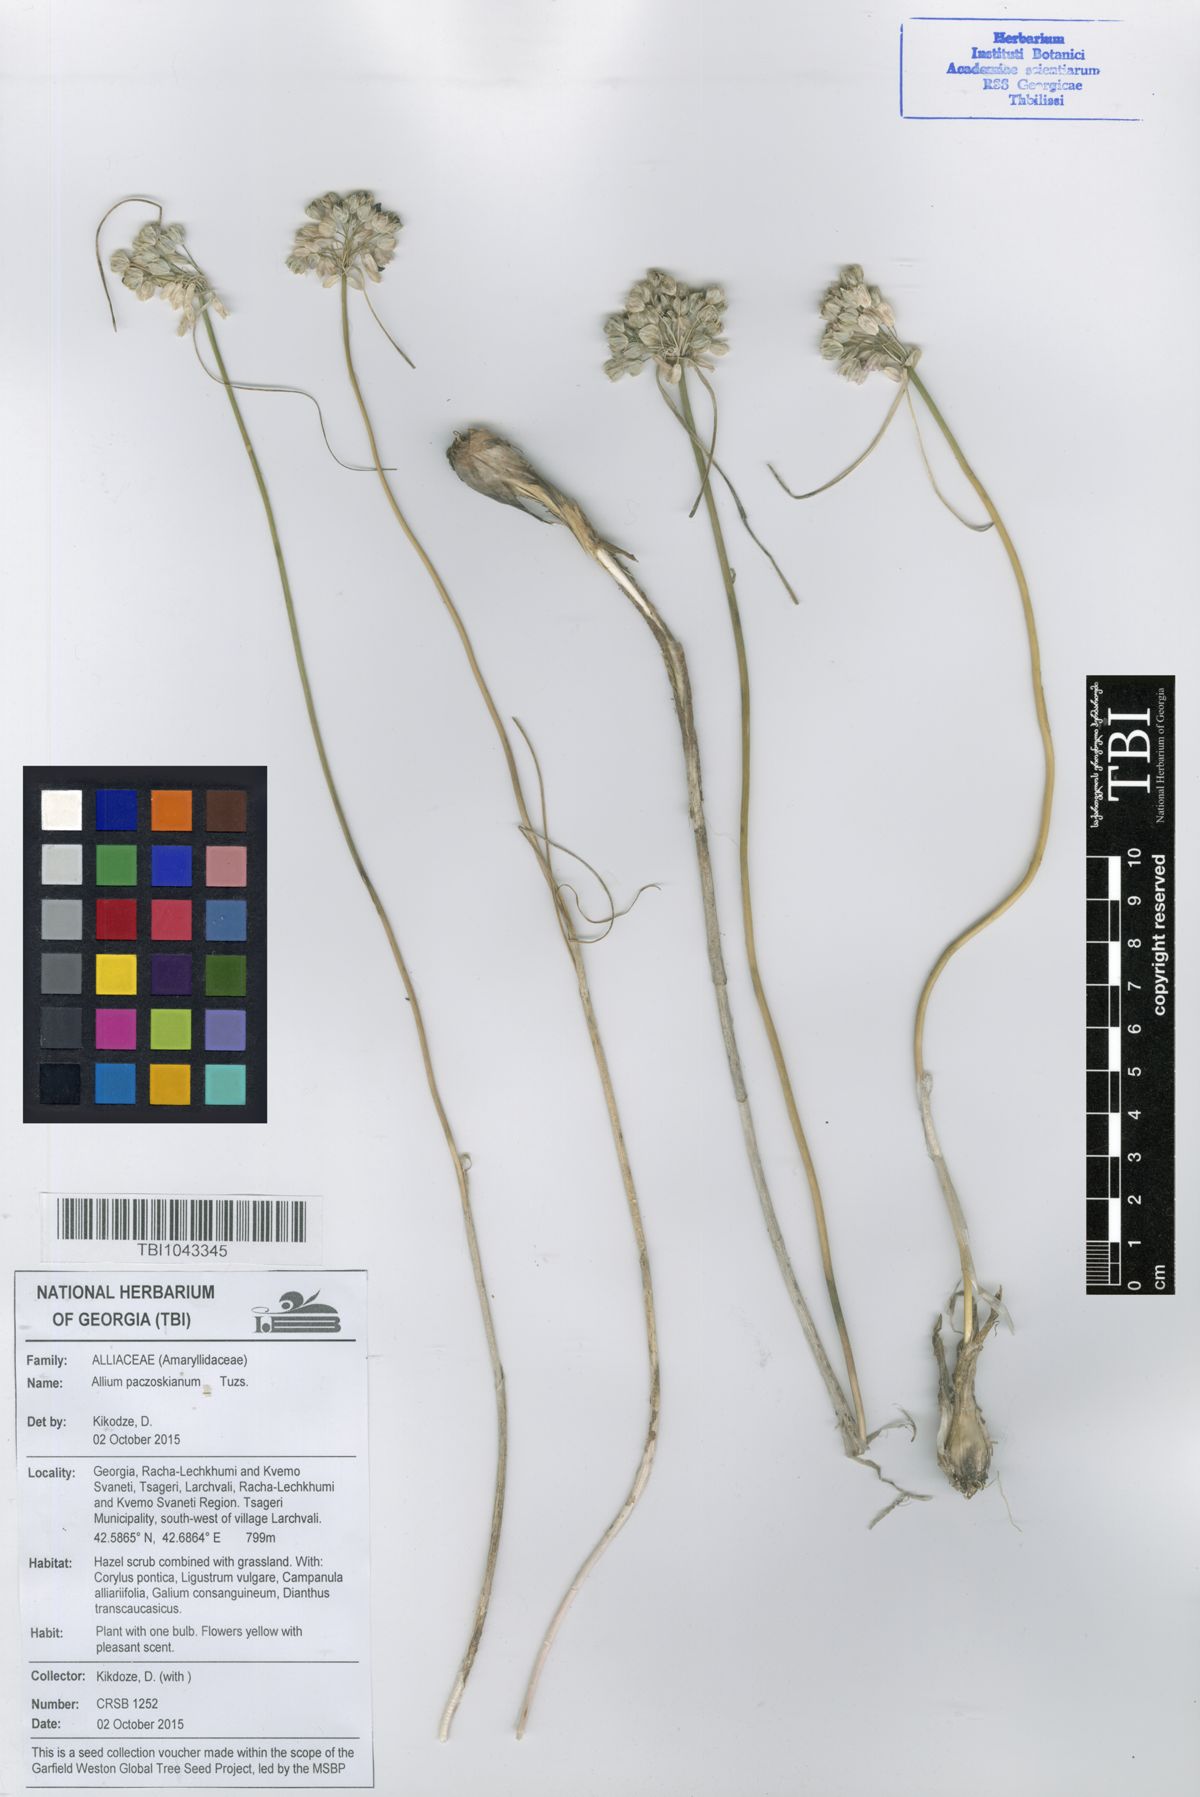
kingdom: Plantae
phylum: Tracheophyta
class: Liliopsida
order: Asparagales
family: Amaryllidaceae
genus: Allium
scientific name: Allium flavum
